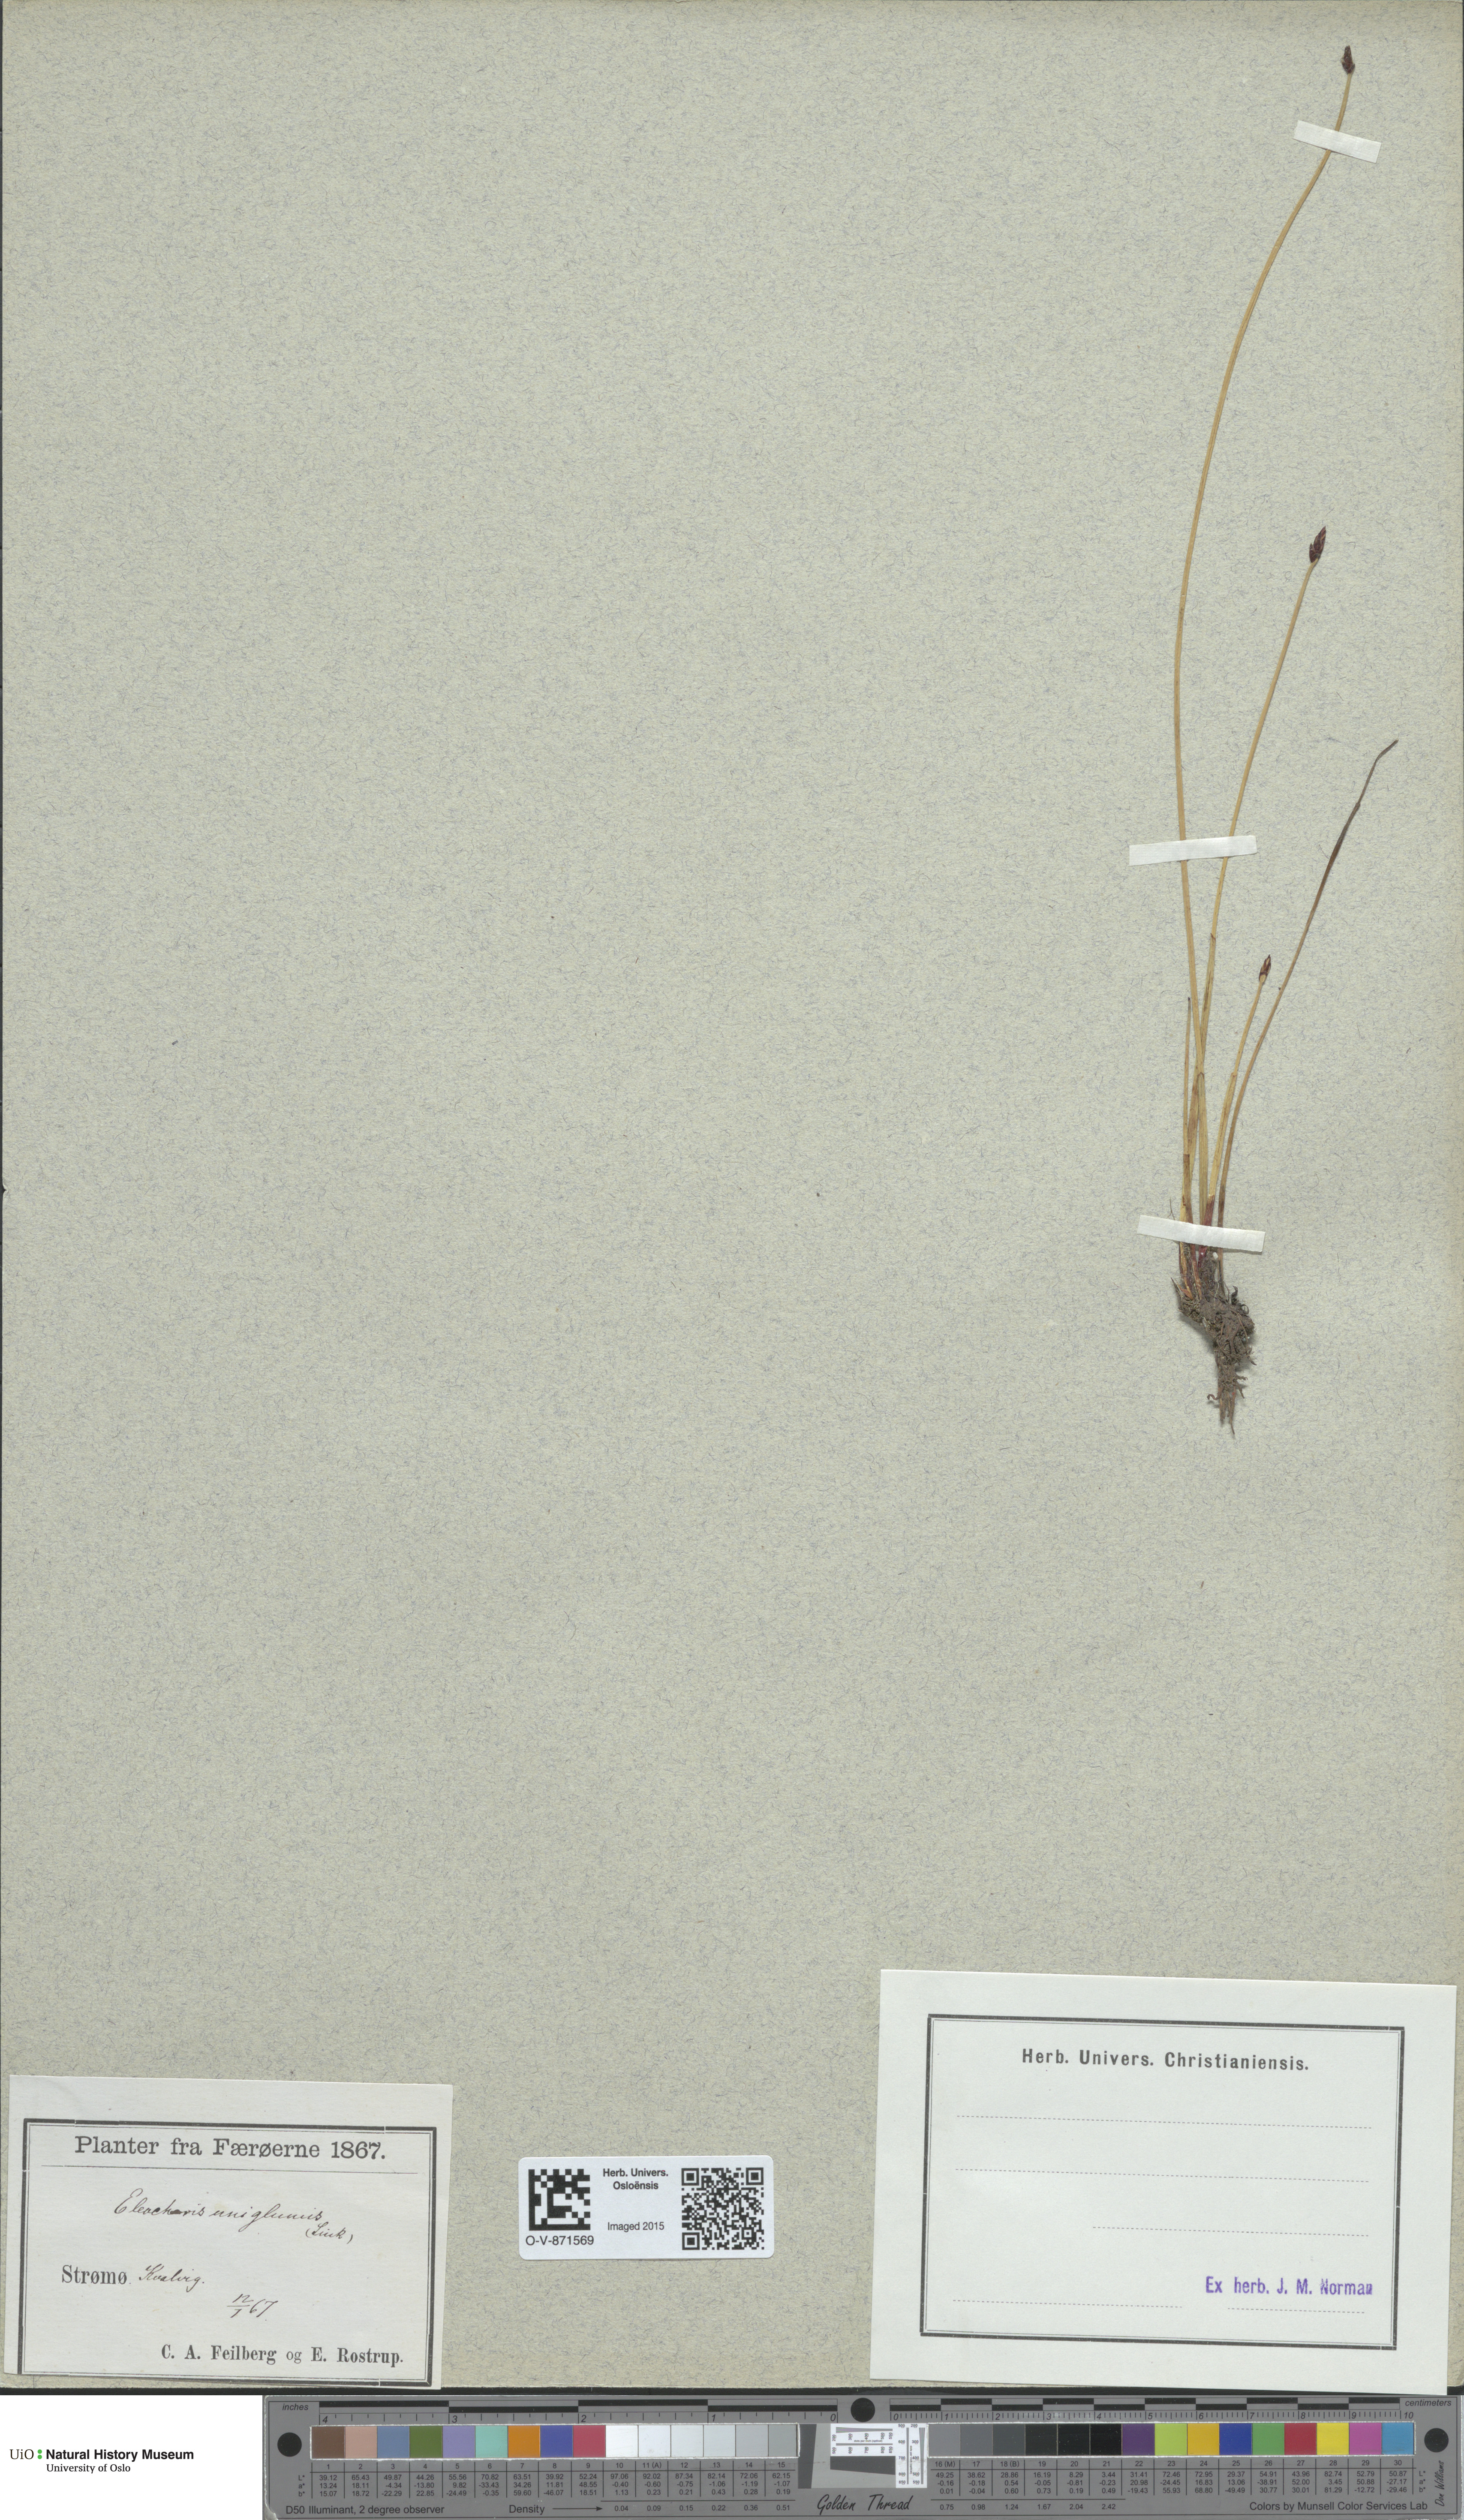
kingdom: Plantae
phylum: Tracheophyta
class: Liliopsida
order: Poales
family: Cyperaceae
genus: Eleocharis
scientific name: Eleocharis uniglumis
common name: Slender spike-rush
